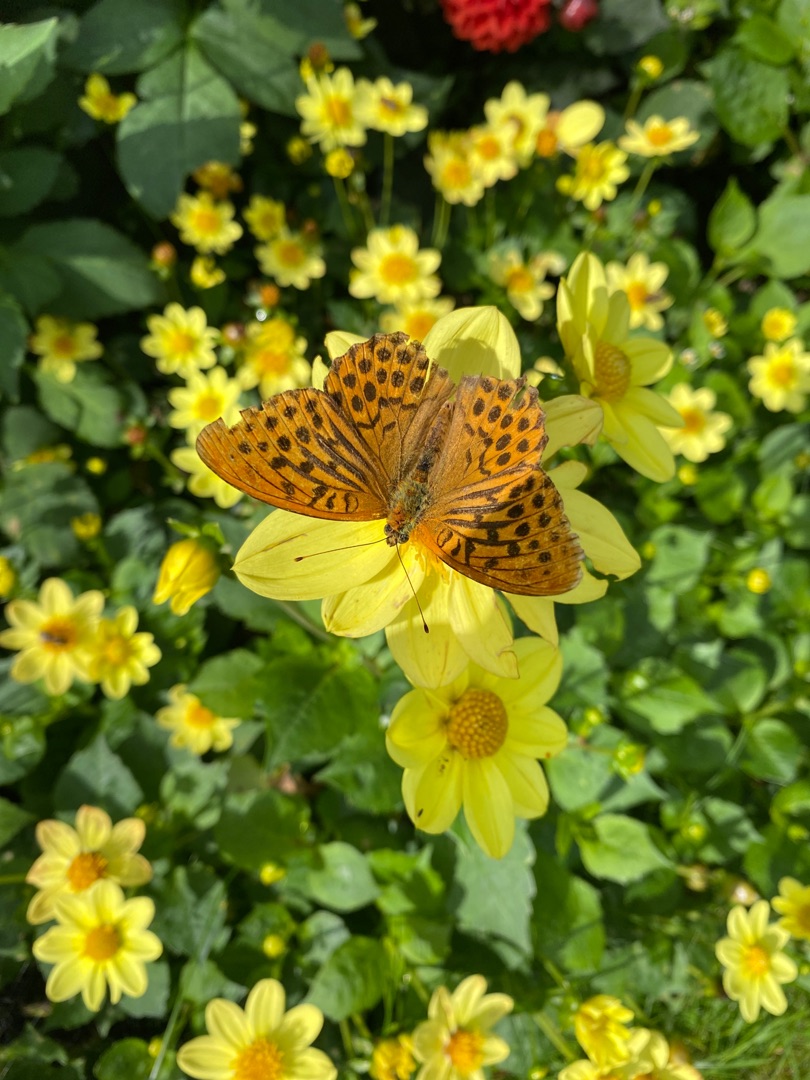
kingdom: Animalia
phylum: Arthropoda
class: Insecta
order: Lepidoptera
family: Nymphalidae
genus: Argynnis
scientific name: Argynnis paphia
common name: Kejserkåbe
